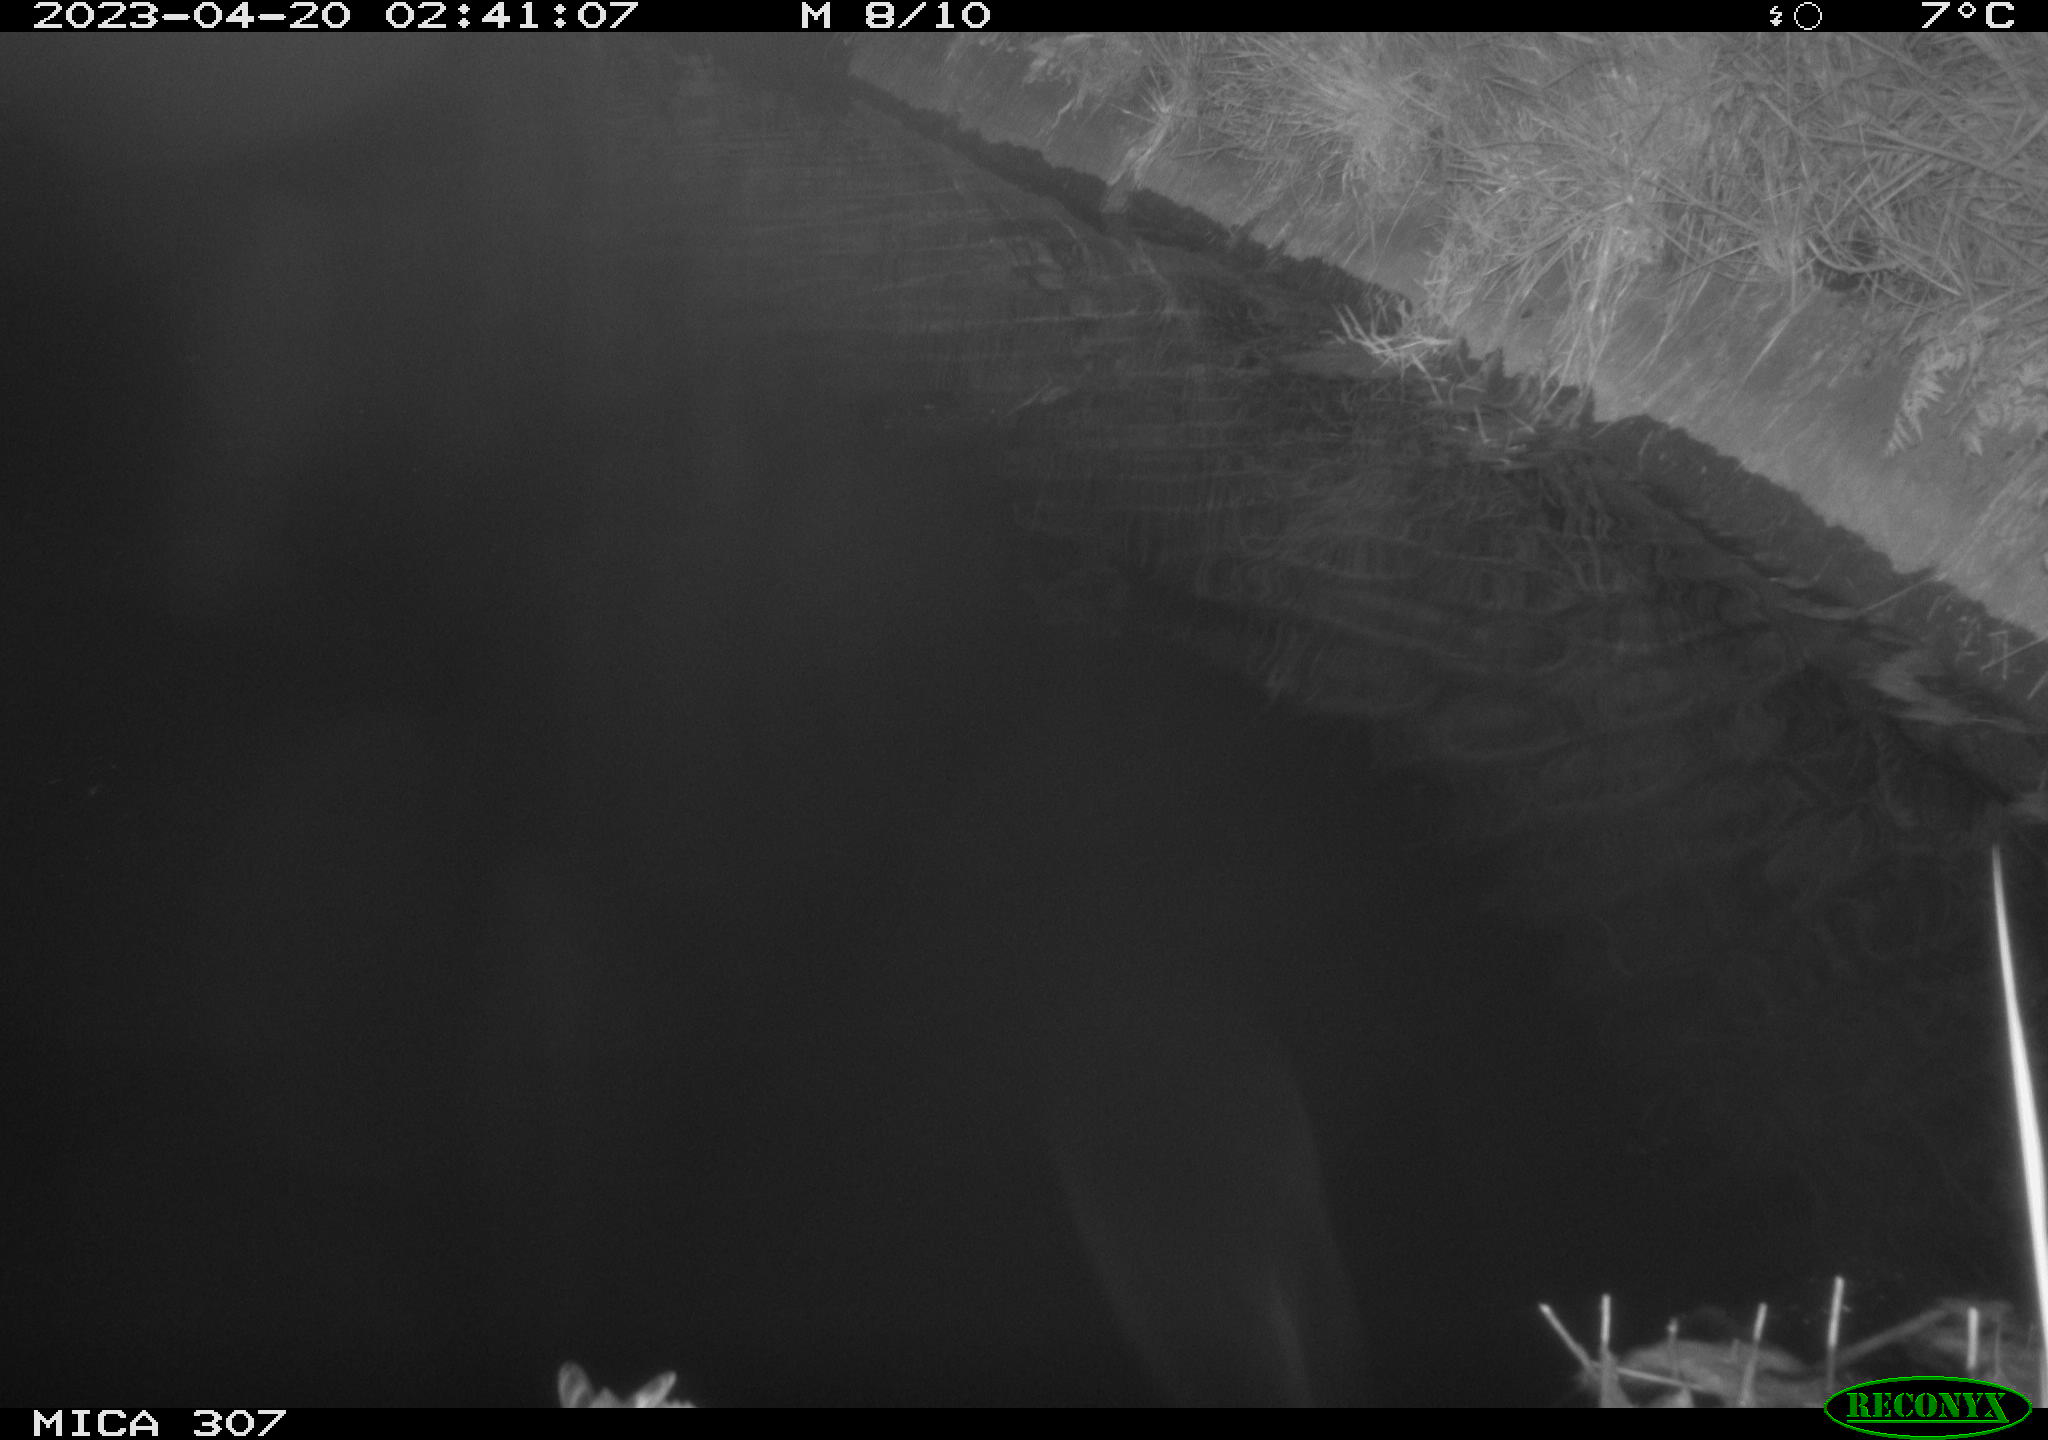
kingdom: Animalia
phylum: Chordata
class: Aves
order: Anseriformes
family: Anatidae
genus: Anas
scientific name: Anas
